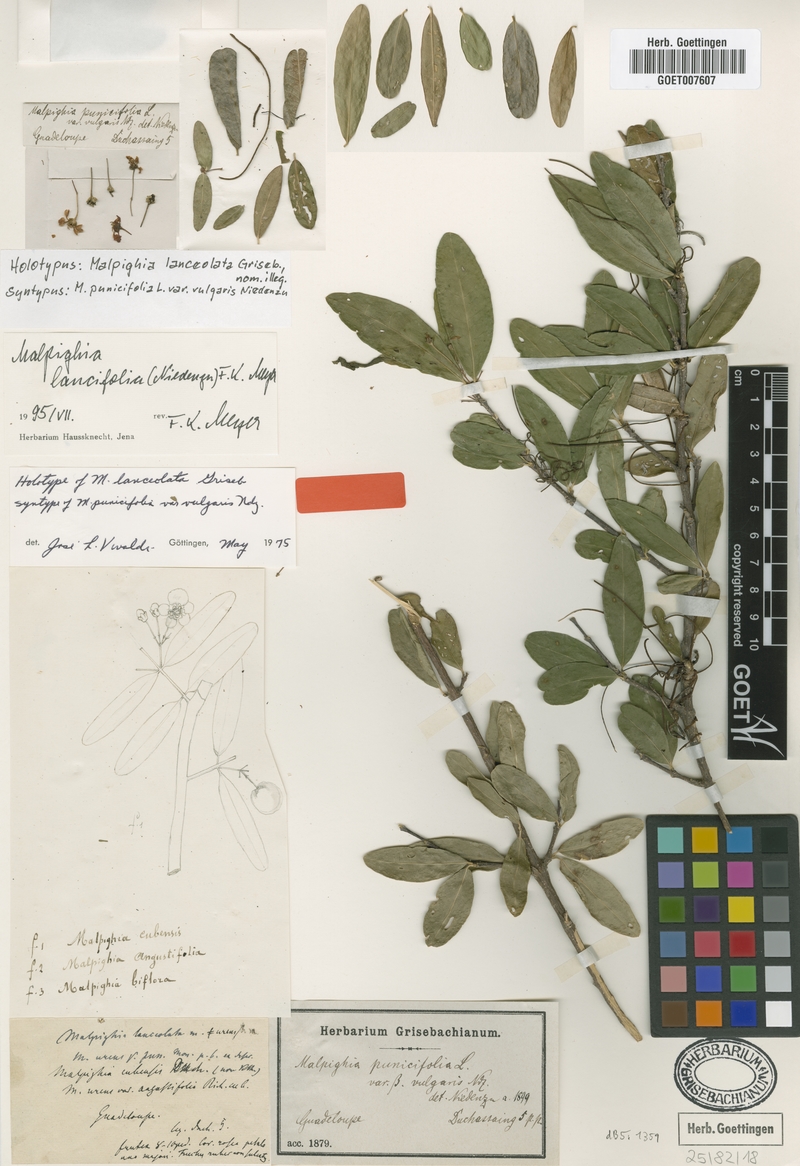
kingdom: Plantae
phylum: Tracheophyta
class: Magnoliopsida
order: Malpighiales
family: Malpighiaceae
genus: Malpighia
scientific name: Malpighia emarginata
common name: Barbados cherry
